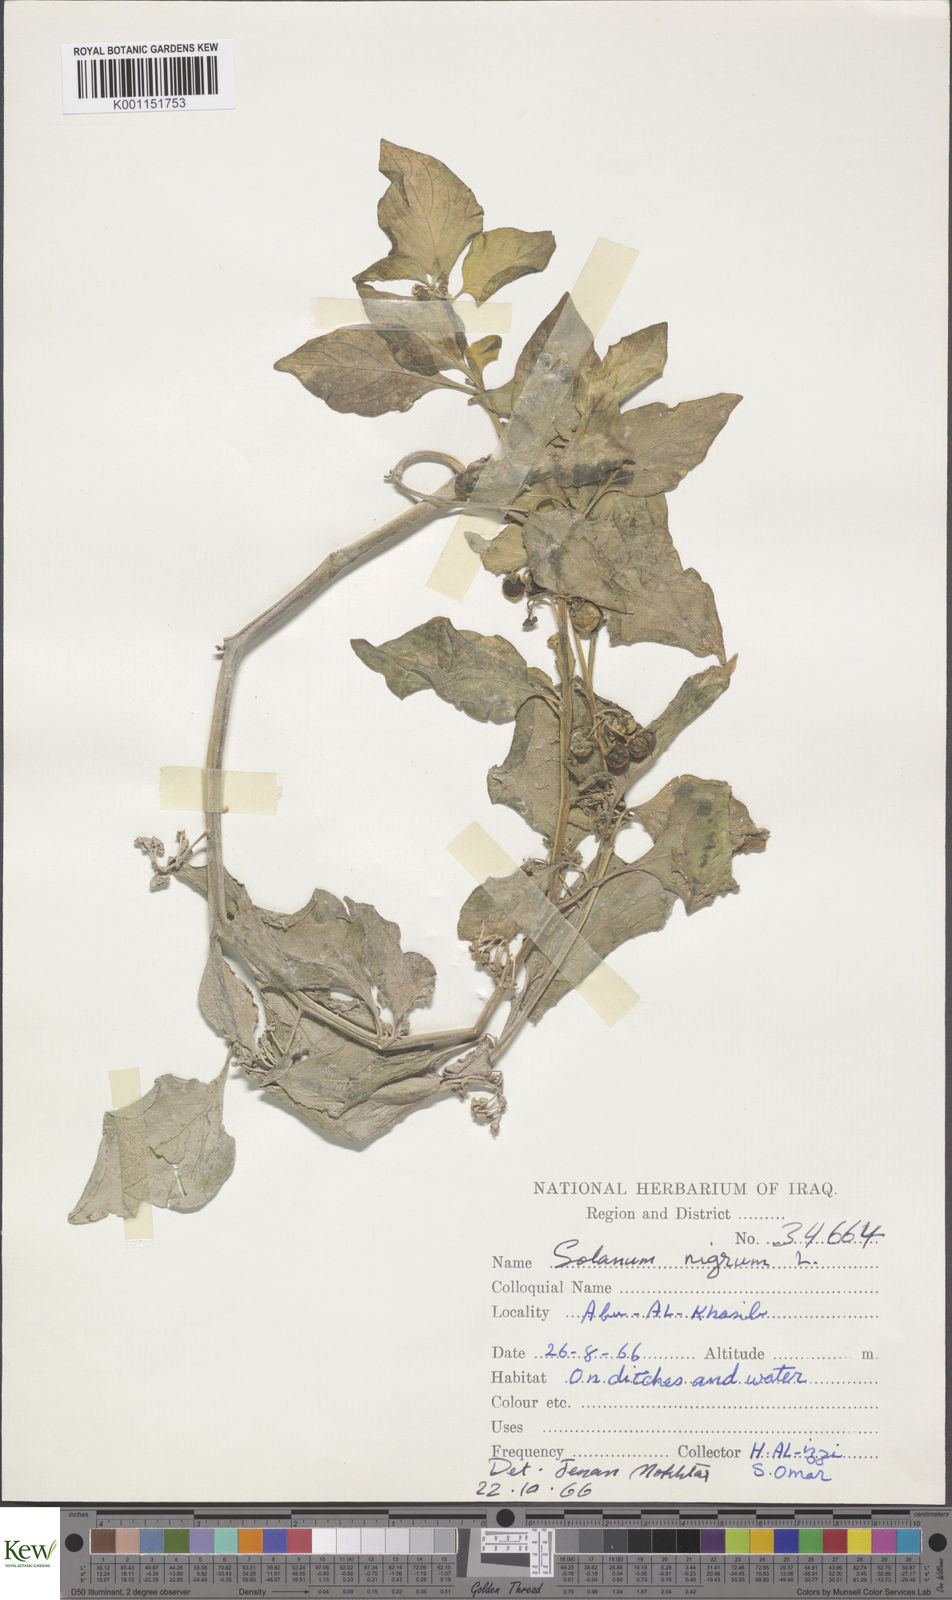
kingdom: Plantae
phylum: Tracheophyta
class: Magnoliopsida
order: Solanales
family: Solanaceae
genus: Solanum
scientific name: Solanum nigrum
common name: Black nightshade
